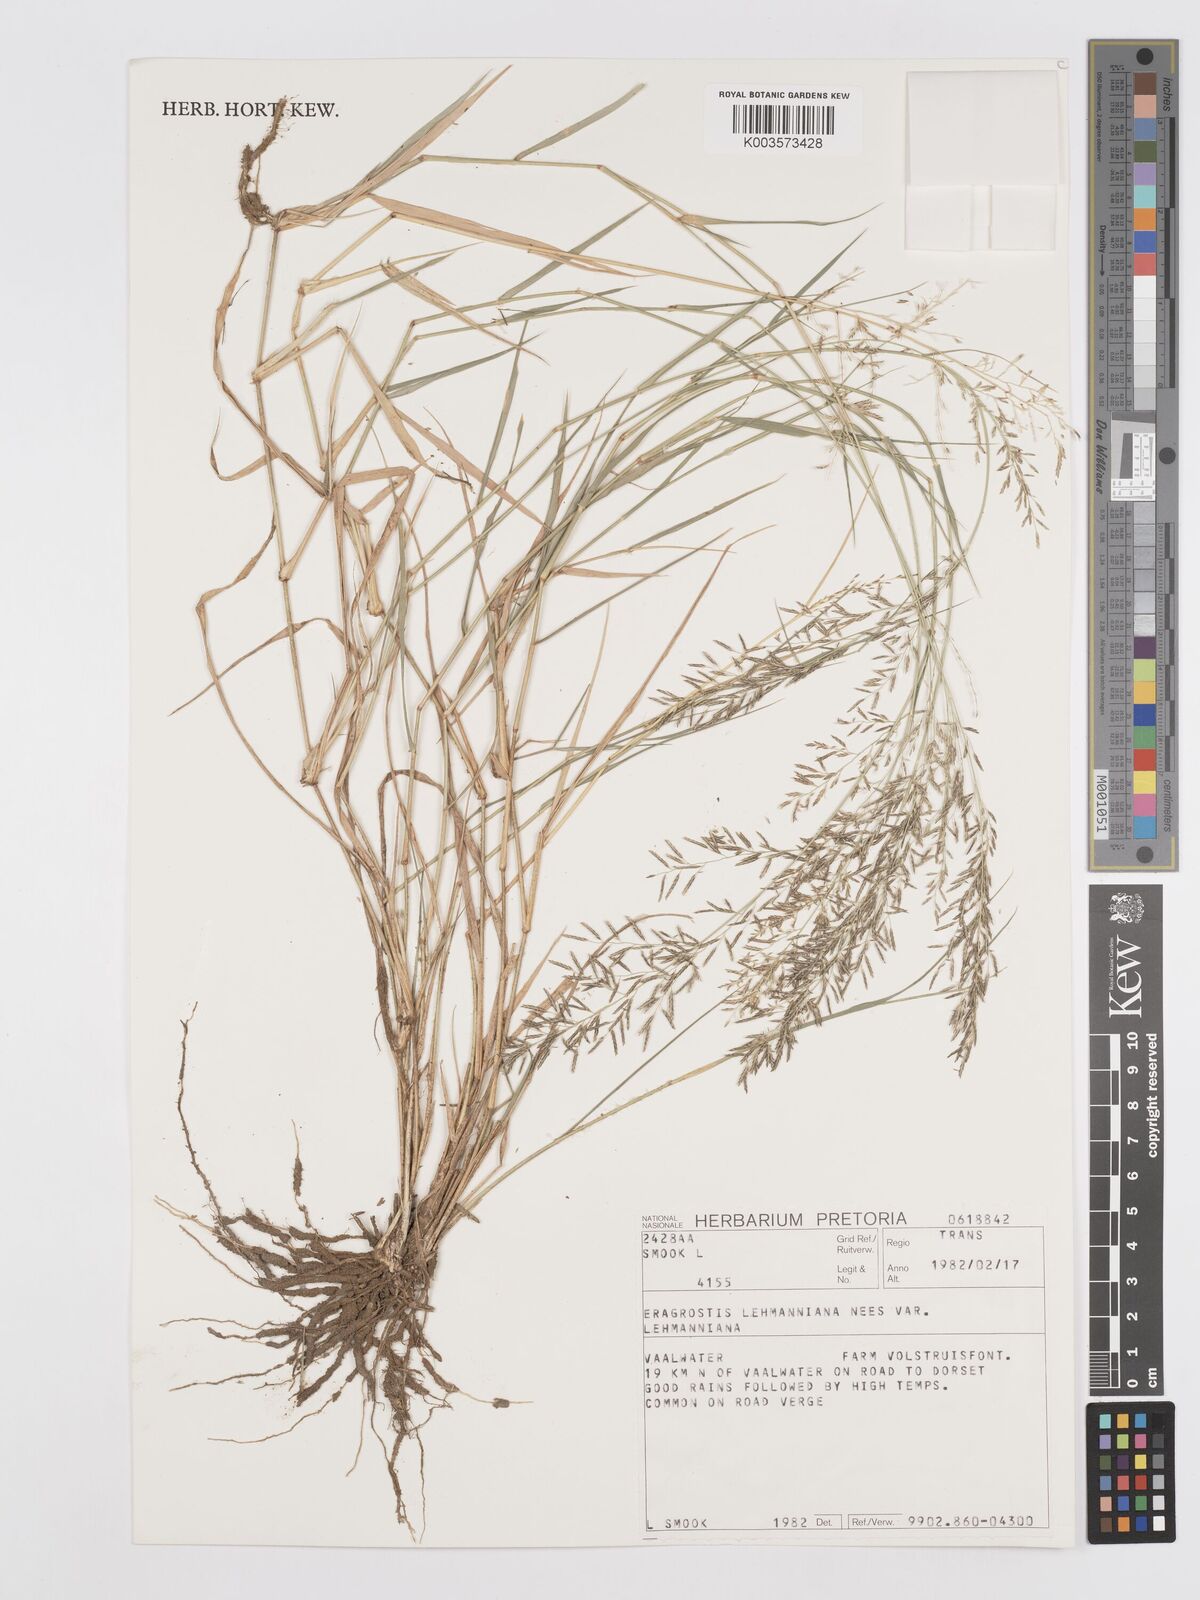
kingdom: Plantae
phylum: Tracheophyta
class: Liliopsida
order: Poales
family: Poaceae
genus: Eragrostis
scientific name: Eragrostis lehmanniana
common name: Lehmann lovegrass
